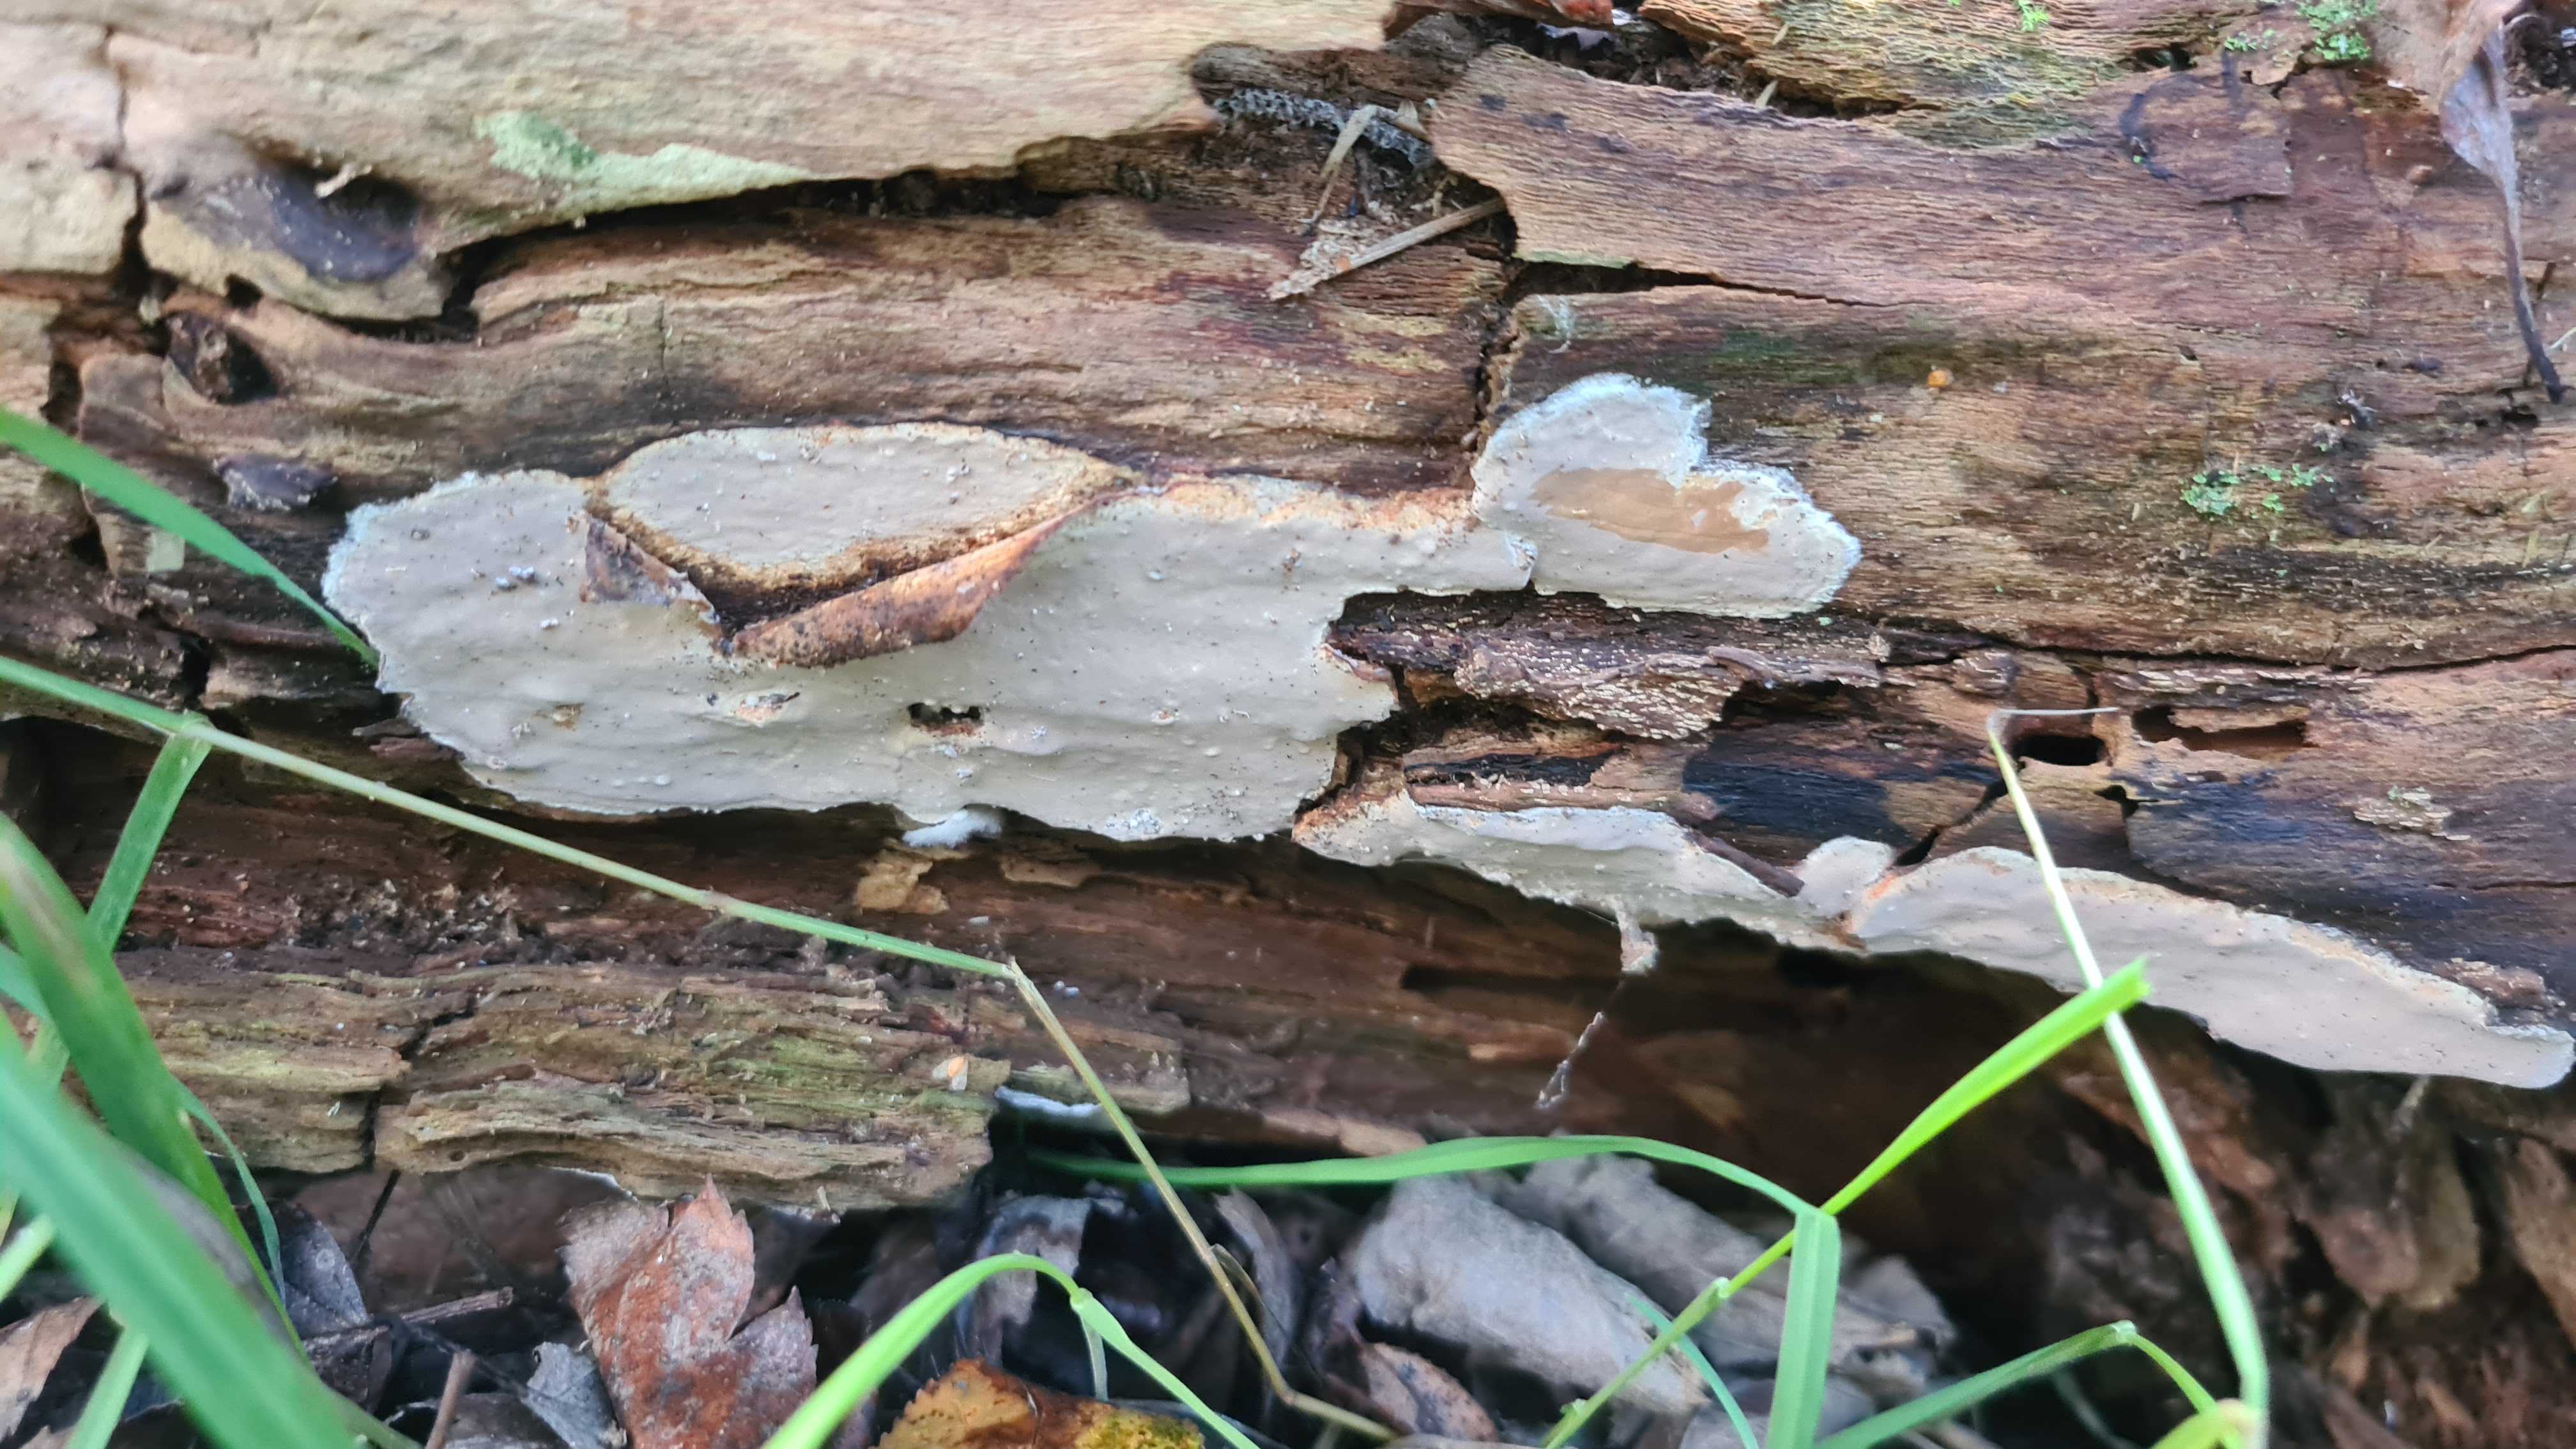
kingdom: Fungi
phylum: Basidiomycota
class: Agaricomycetes
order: Russulales
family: Peniophoraceae
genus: Scytinostroma
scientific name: Scytinostroma hemidichophyticum
